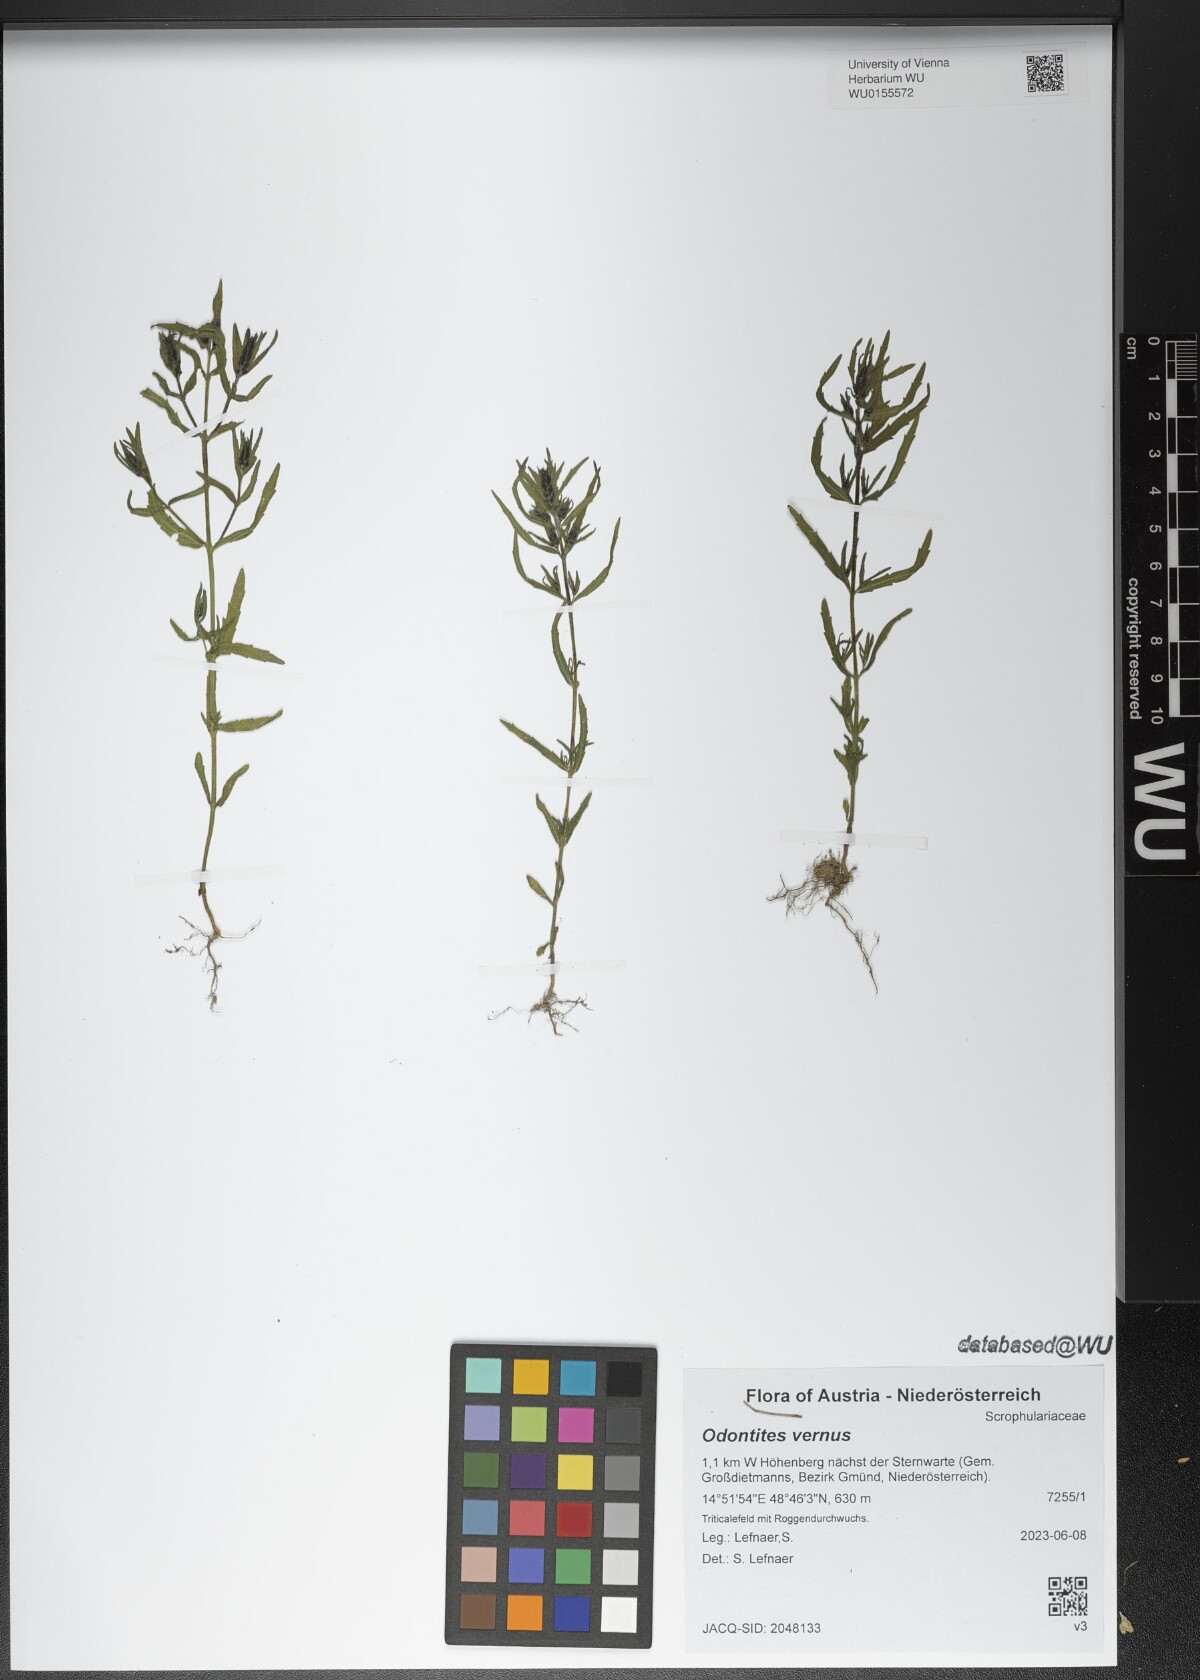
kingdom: Plantae
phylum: Tracheophyta
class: Magnoliopsida
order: Lamiales
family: Orobanchaceae
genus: Odontites
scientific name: Odontites vernus
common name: Red bartsia
